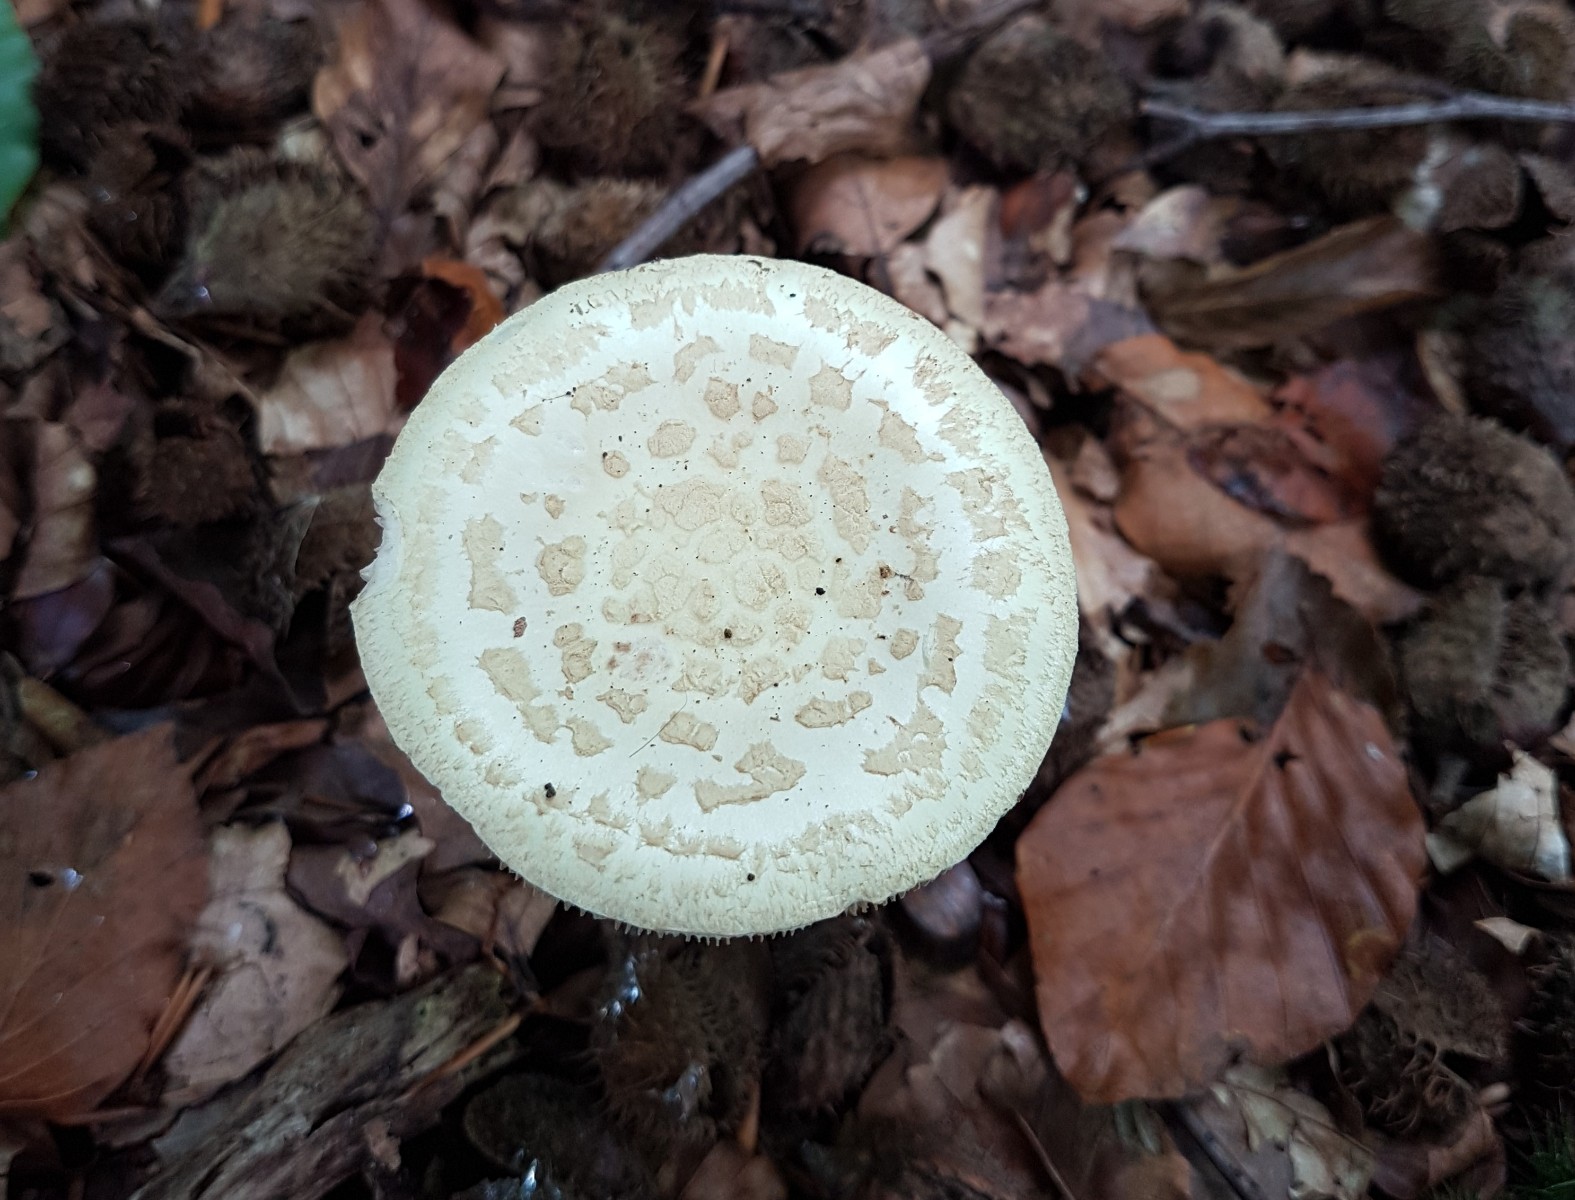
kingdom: Fungi
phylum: Basidiomycota
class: Agaricomycetes
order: Agaricales
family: Amanitaceae
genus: Amanita
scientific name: Amanita citrina
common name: kugleknoldet fluesvamp
